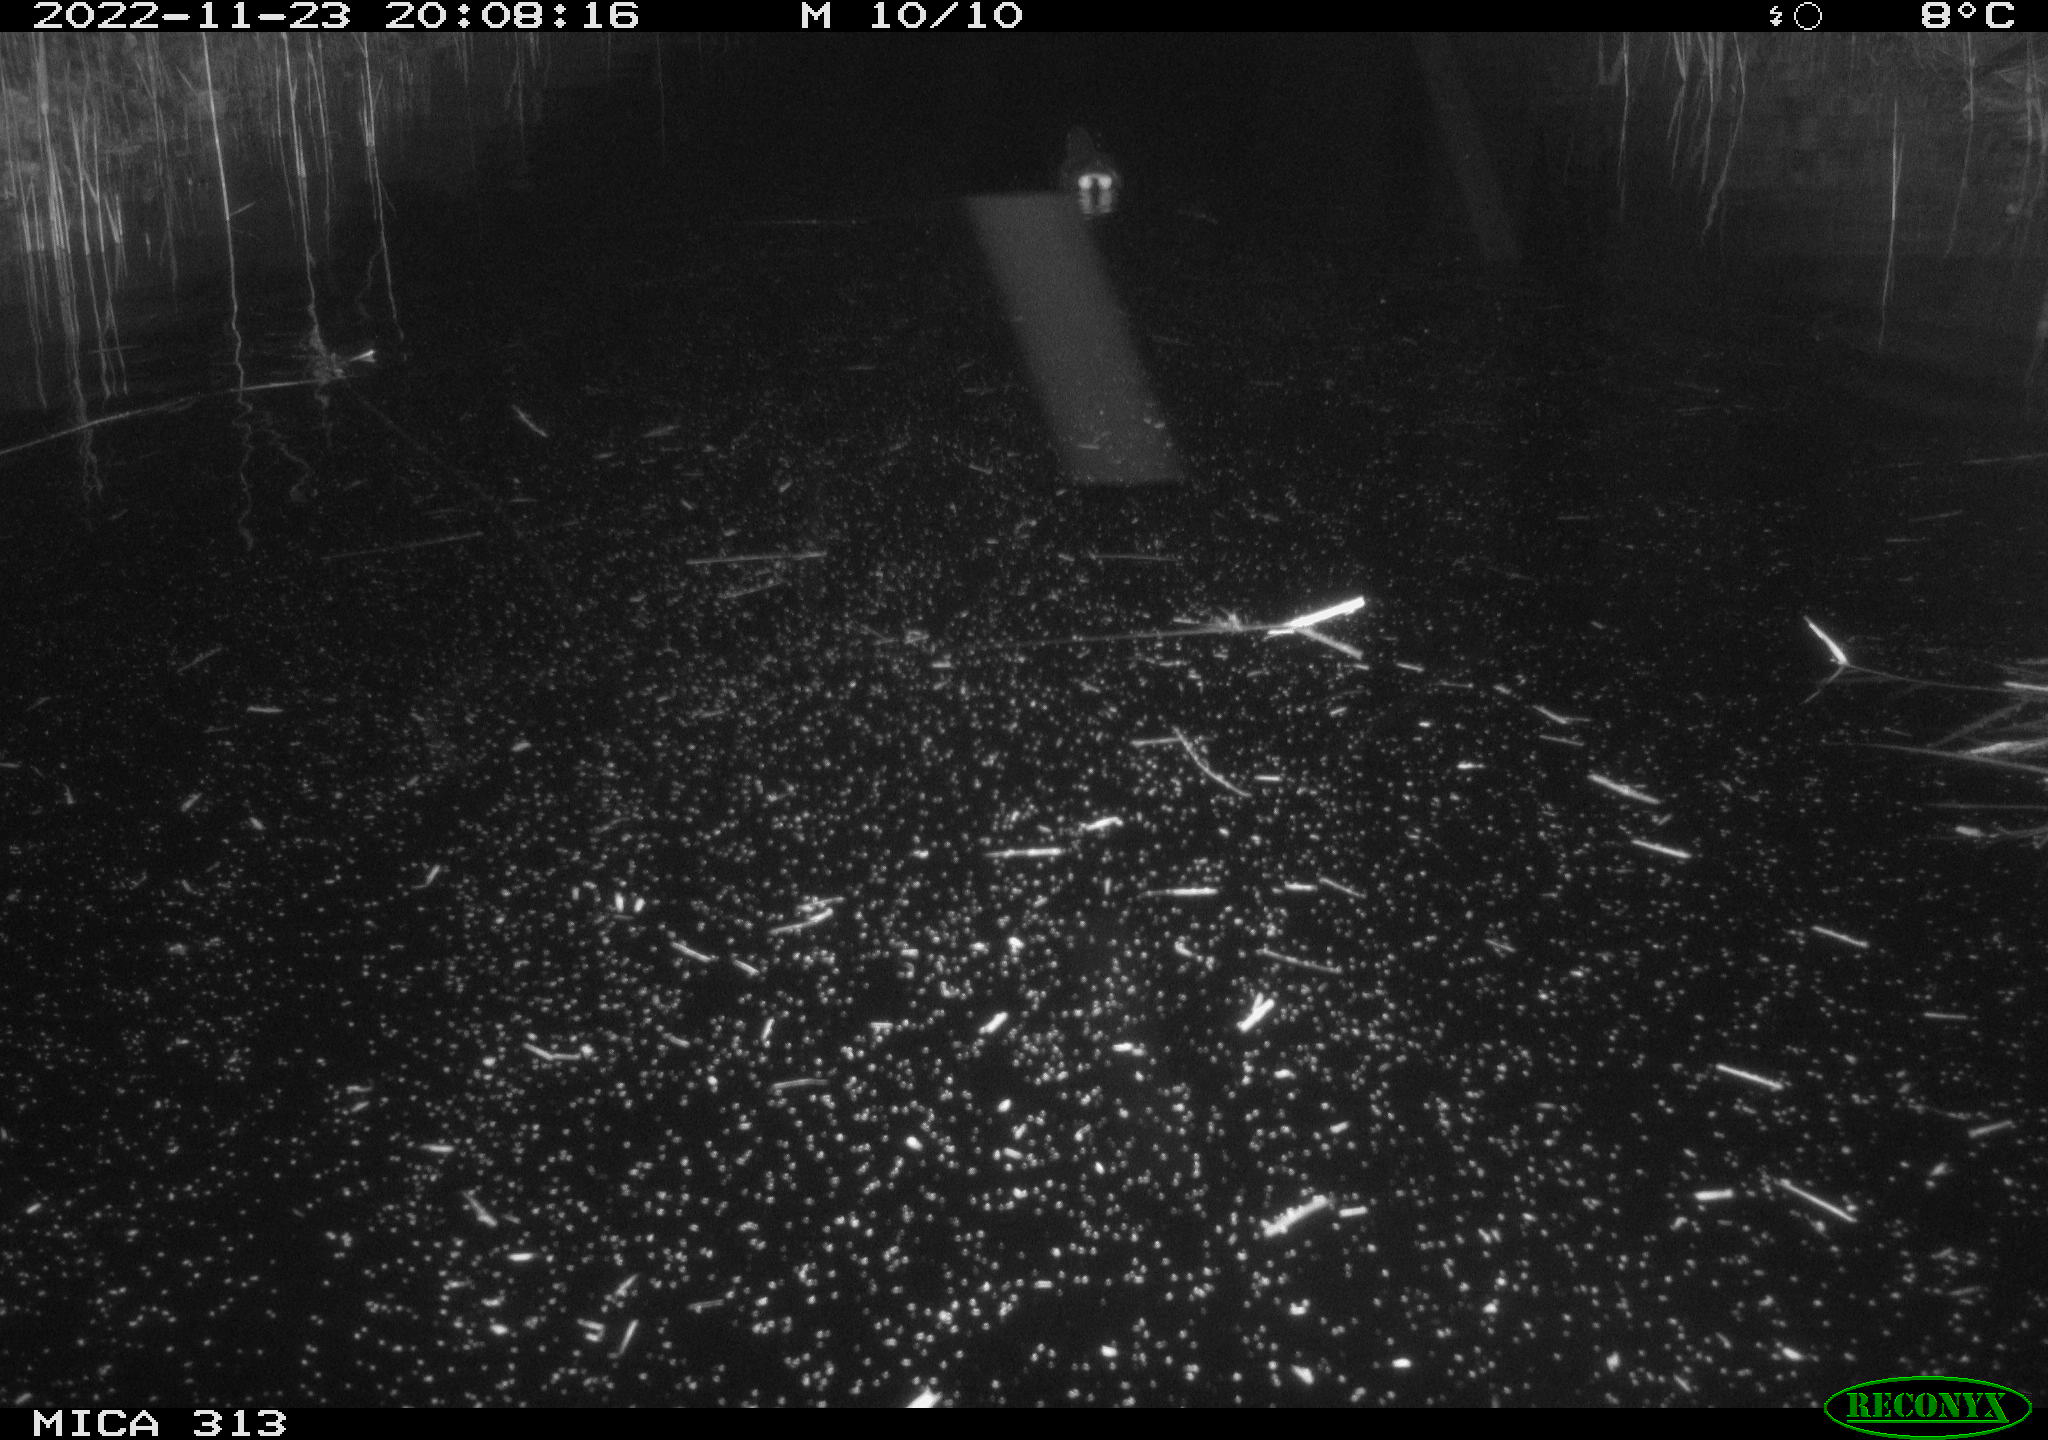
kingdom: Animalia
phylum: Chordata
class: Aves
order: Gruiformes
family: Rallidae
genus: Gallinula
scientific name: Gallinula chloropus
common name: Common moorhen
